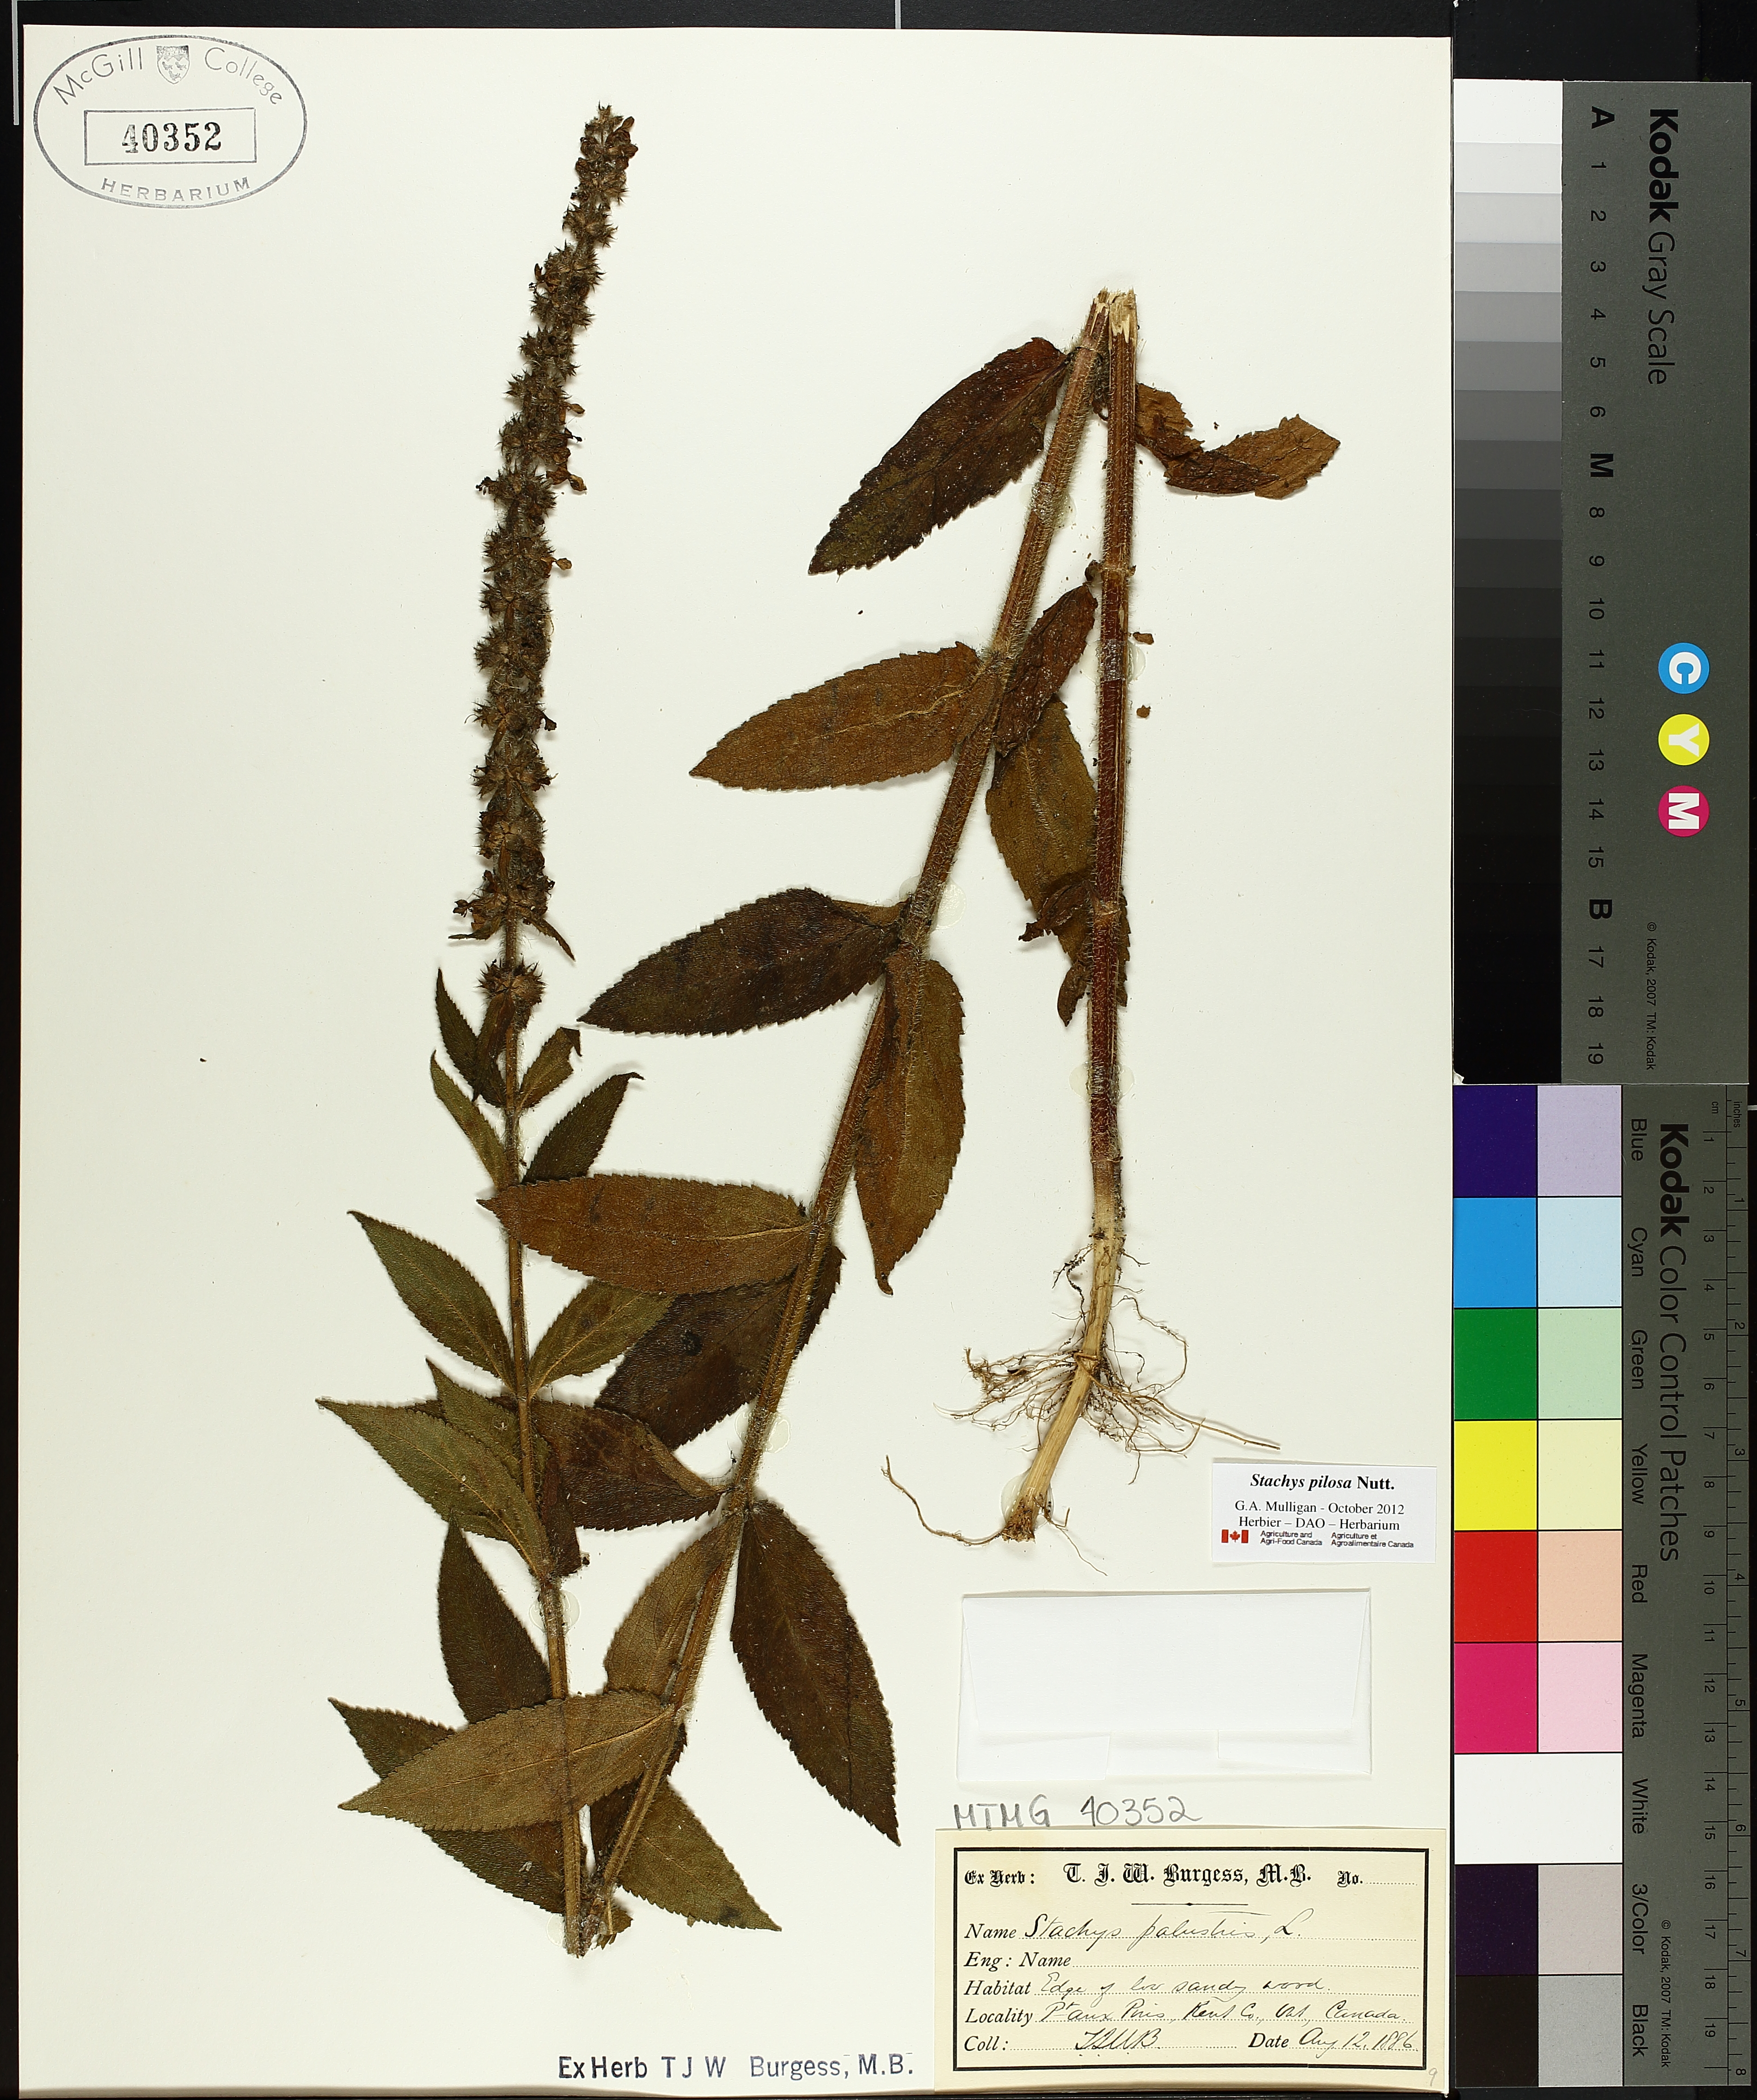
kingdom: Plantae
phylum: Tracheophyta
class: Magnoliopsida
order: Lamiales
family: Lamiaceae
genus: Stachys
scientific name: Stachys palustris
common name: Marsh woundwort
